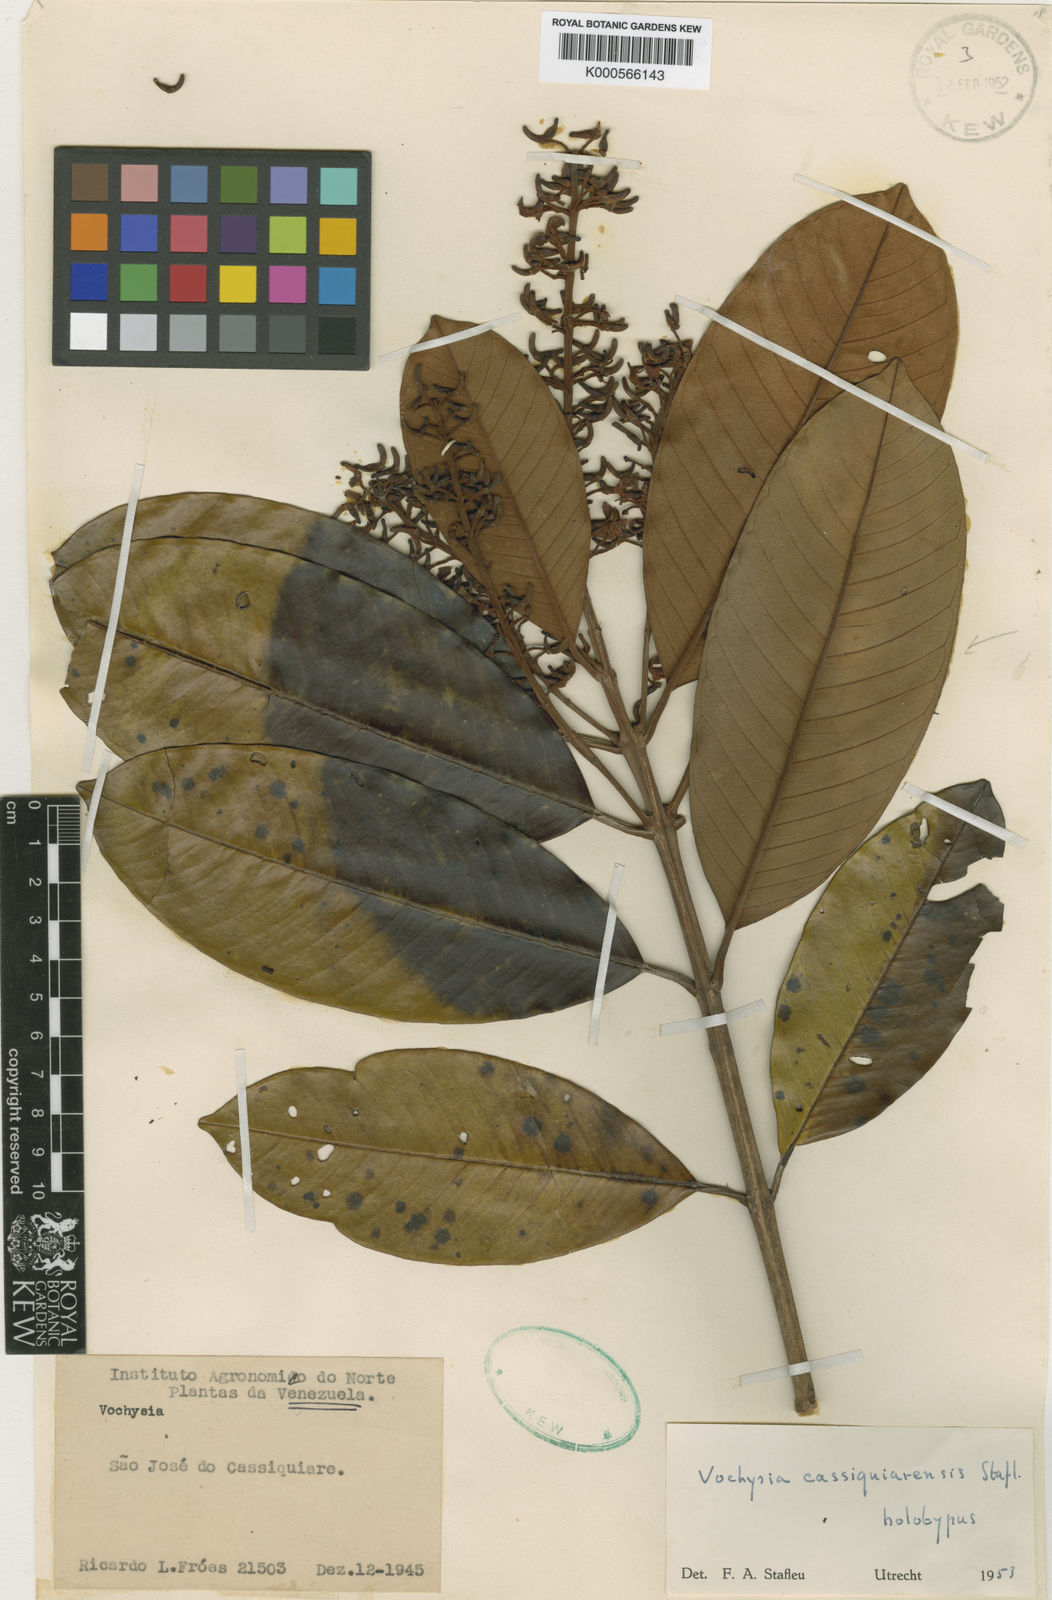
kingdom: Plantae
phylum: Tracheophyta
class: Magnoliopsida
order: Myrtales
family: Vochysiaceae
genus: Vochysia
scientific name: Vochysia cassiquiarensis
